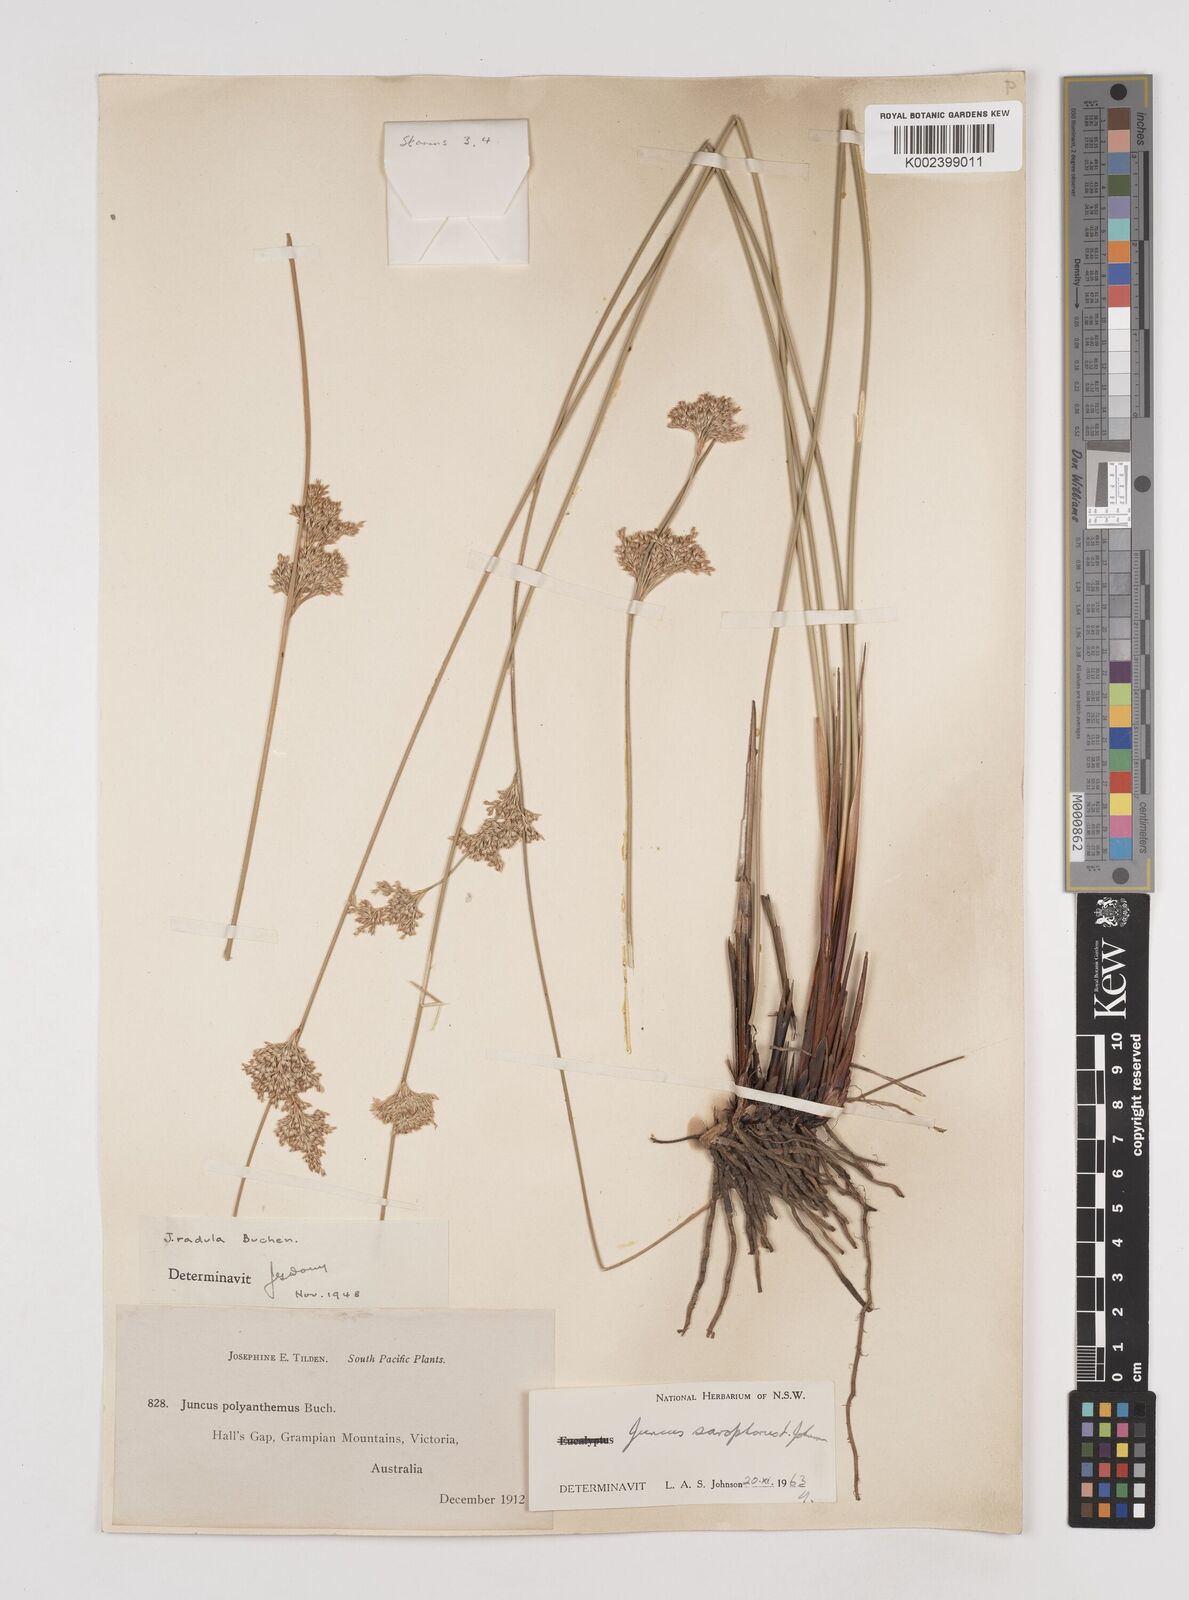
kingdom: Plantae
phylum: Tracheophyta
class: Liliopsida
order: Poales
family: Juncaceae
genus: Juncus
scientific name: Juncus sarophorus
